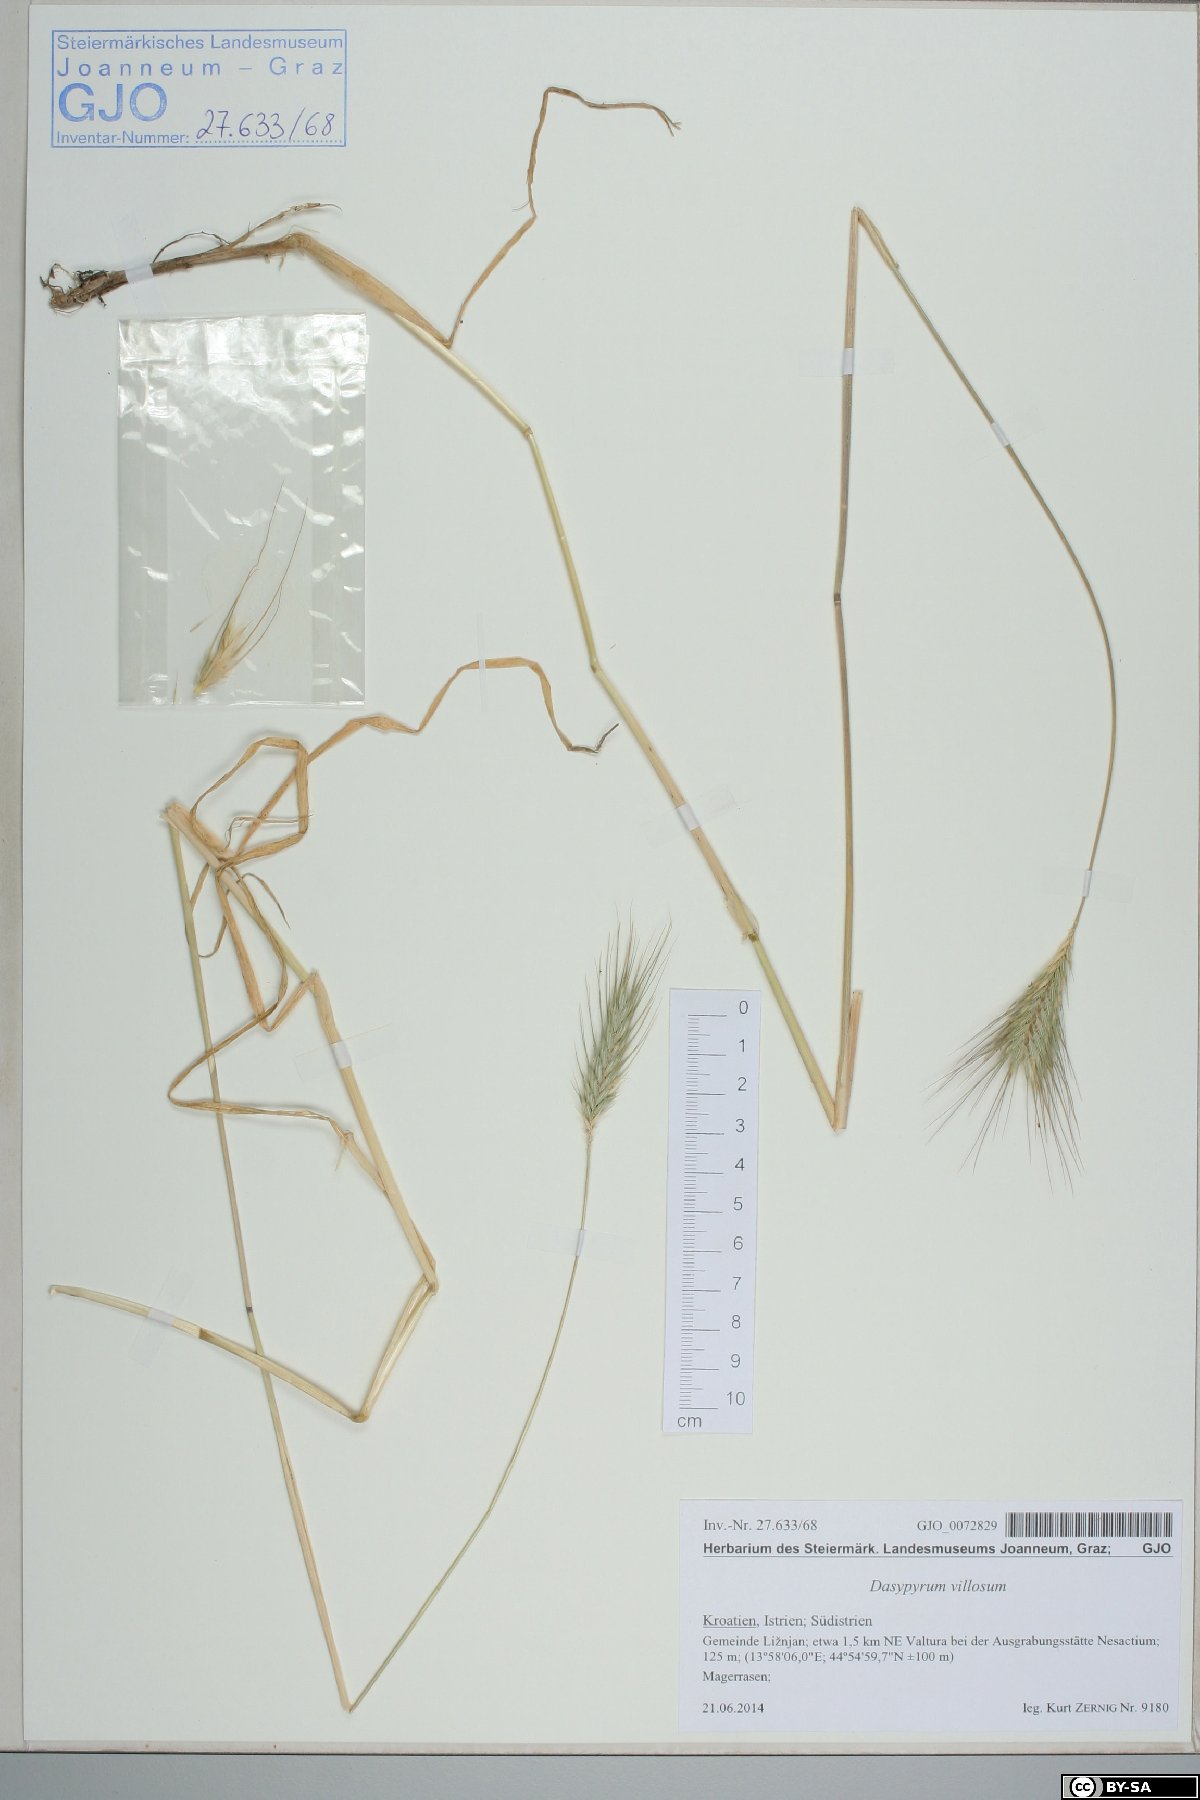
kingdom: Plantae
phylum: Tracheophyta
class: Liliopsida
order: Poales
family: Poaceae
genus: Dasypyrum
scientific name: Dasypyrum villosum
